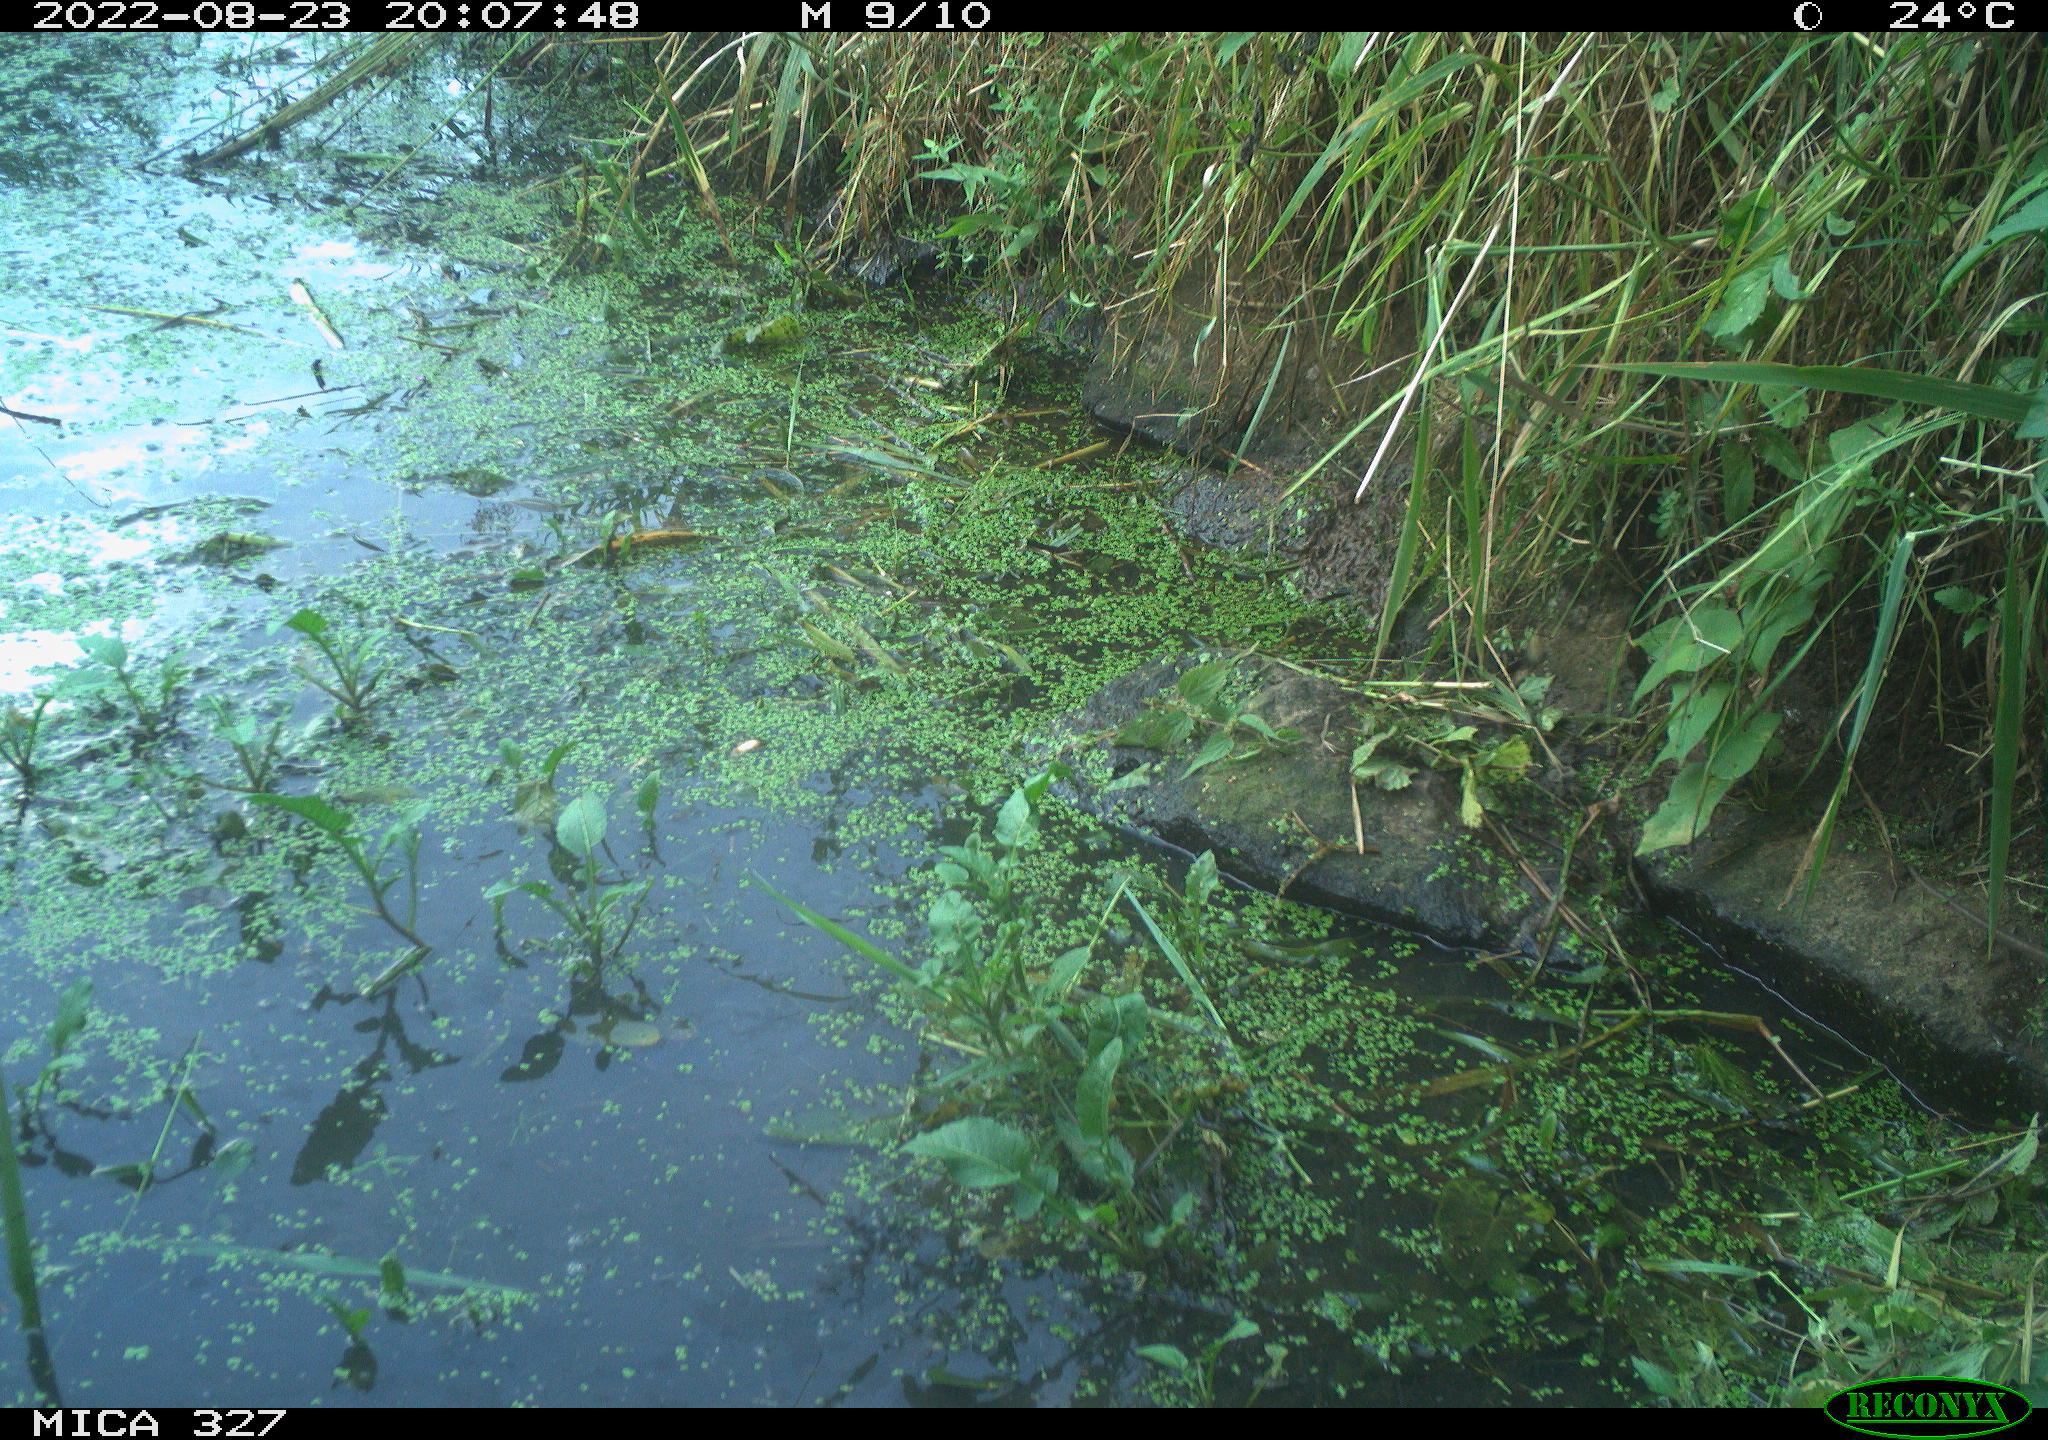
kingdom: Animalia
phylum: Chordata
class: Mammalia
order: Rodentia
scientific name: Rodentia
